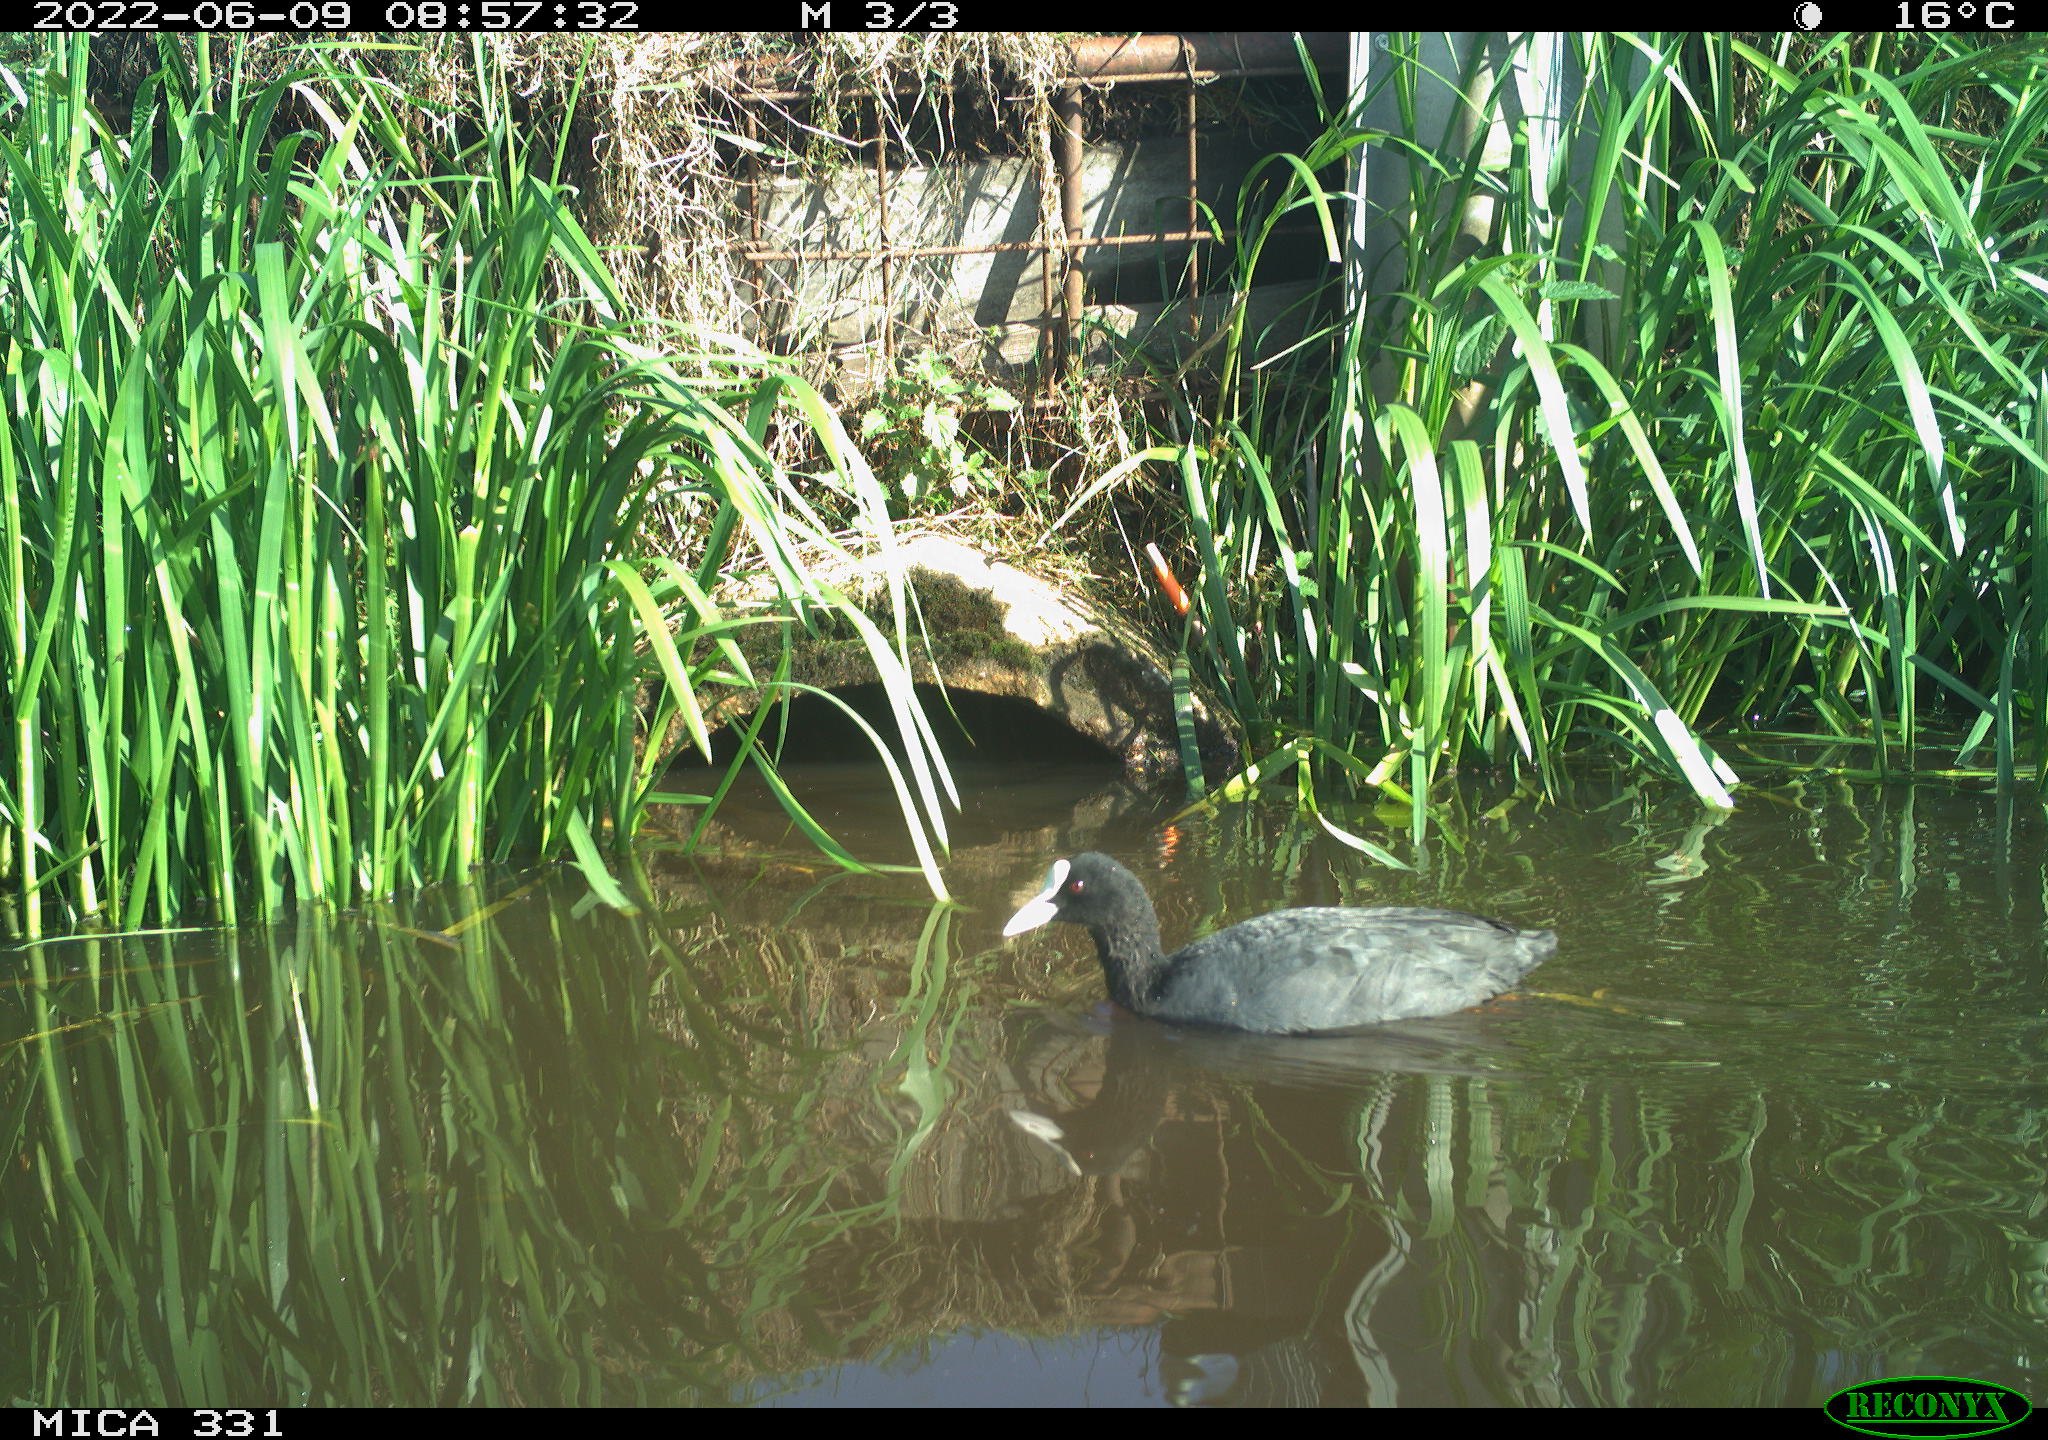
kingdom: Animalia
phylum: Chordata
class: Aves
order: Gruiformes
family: Rallidae
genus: Fulica
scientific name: Fulica atra
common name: Eurasian coot
